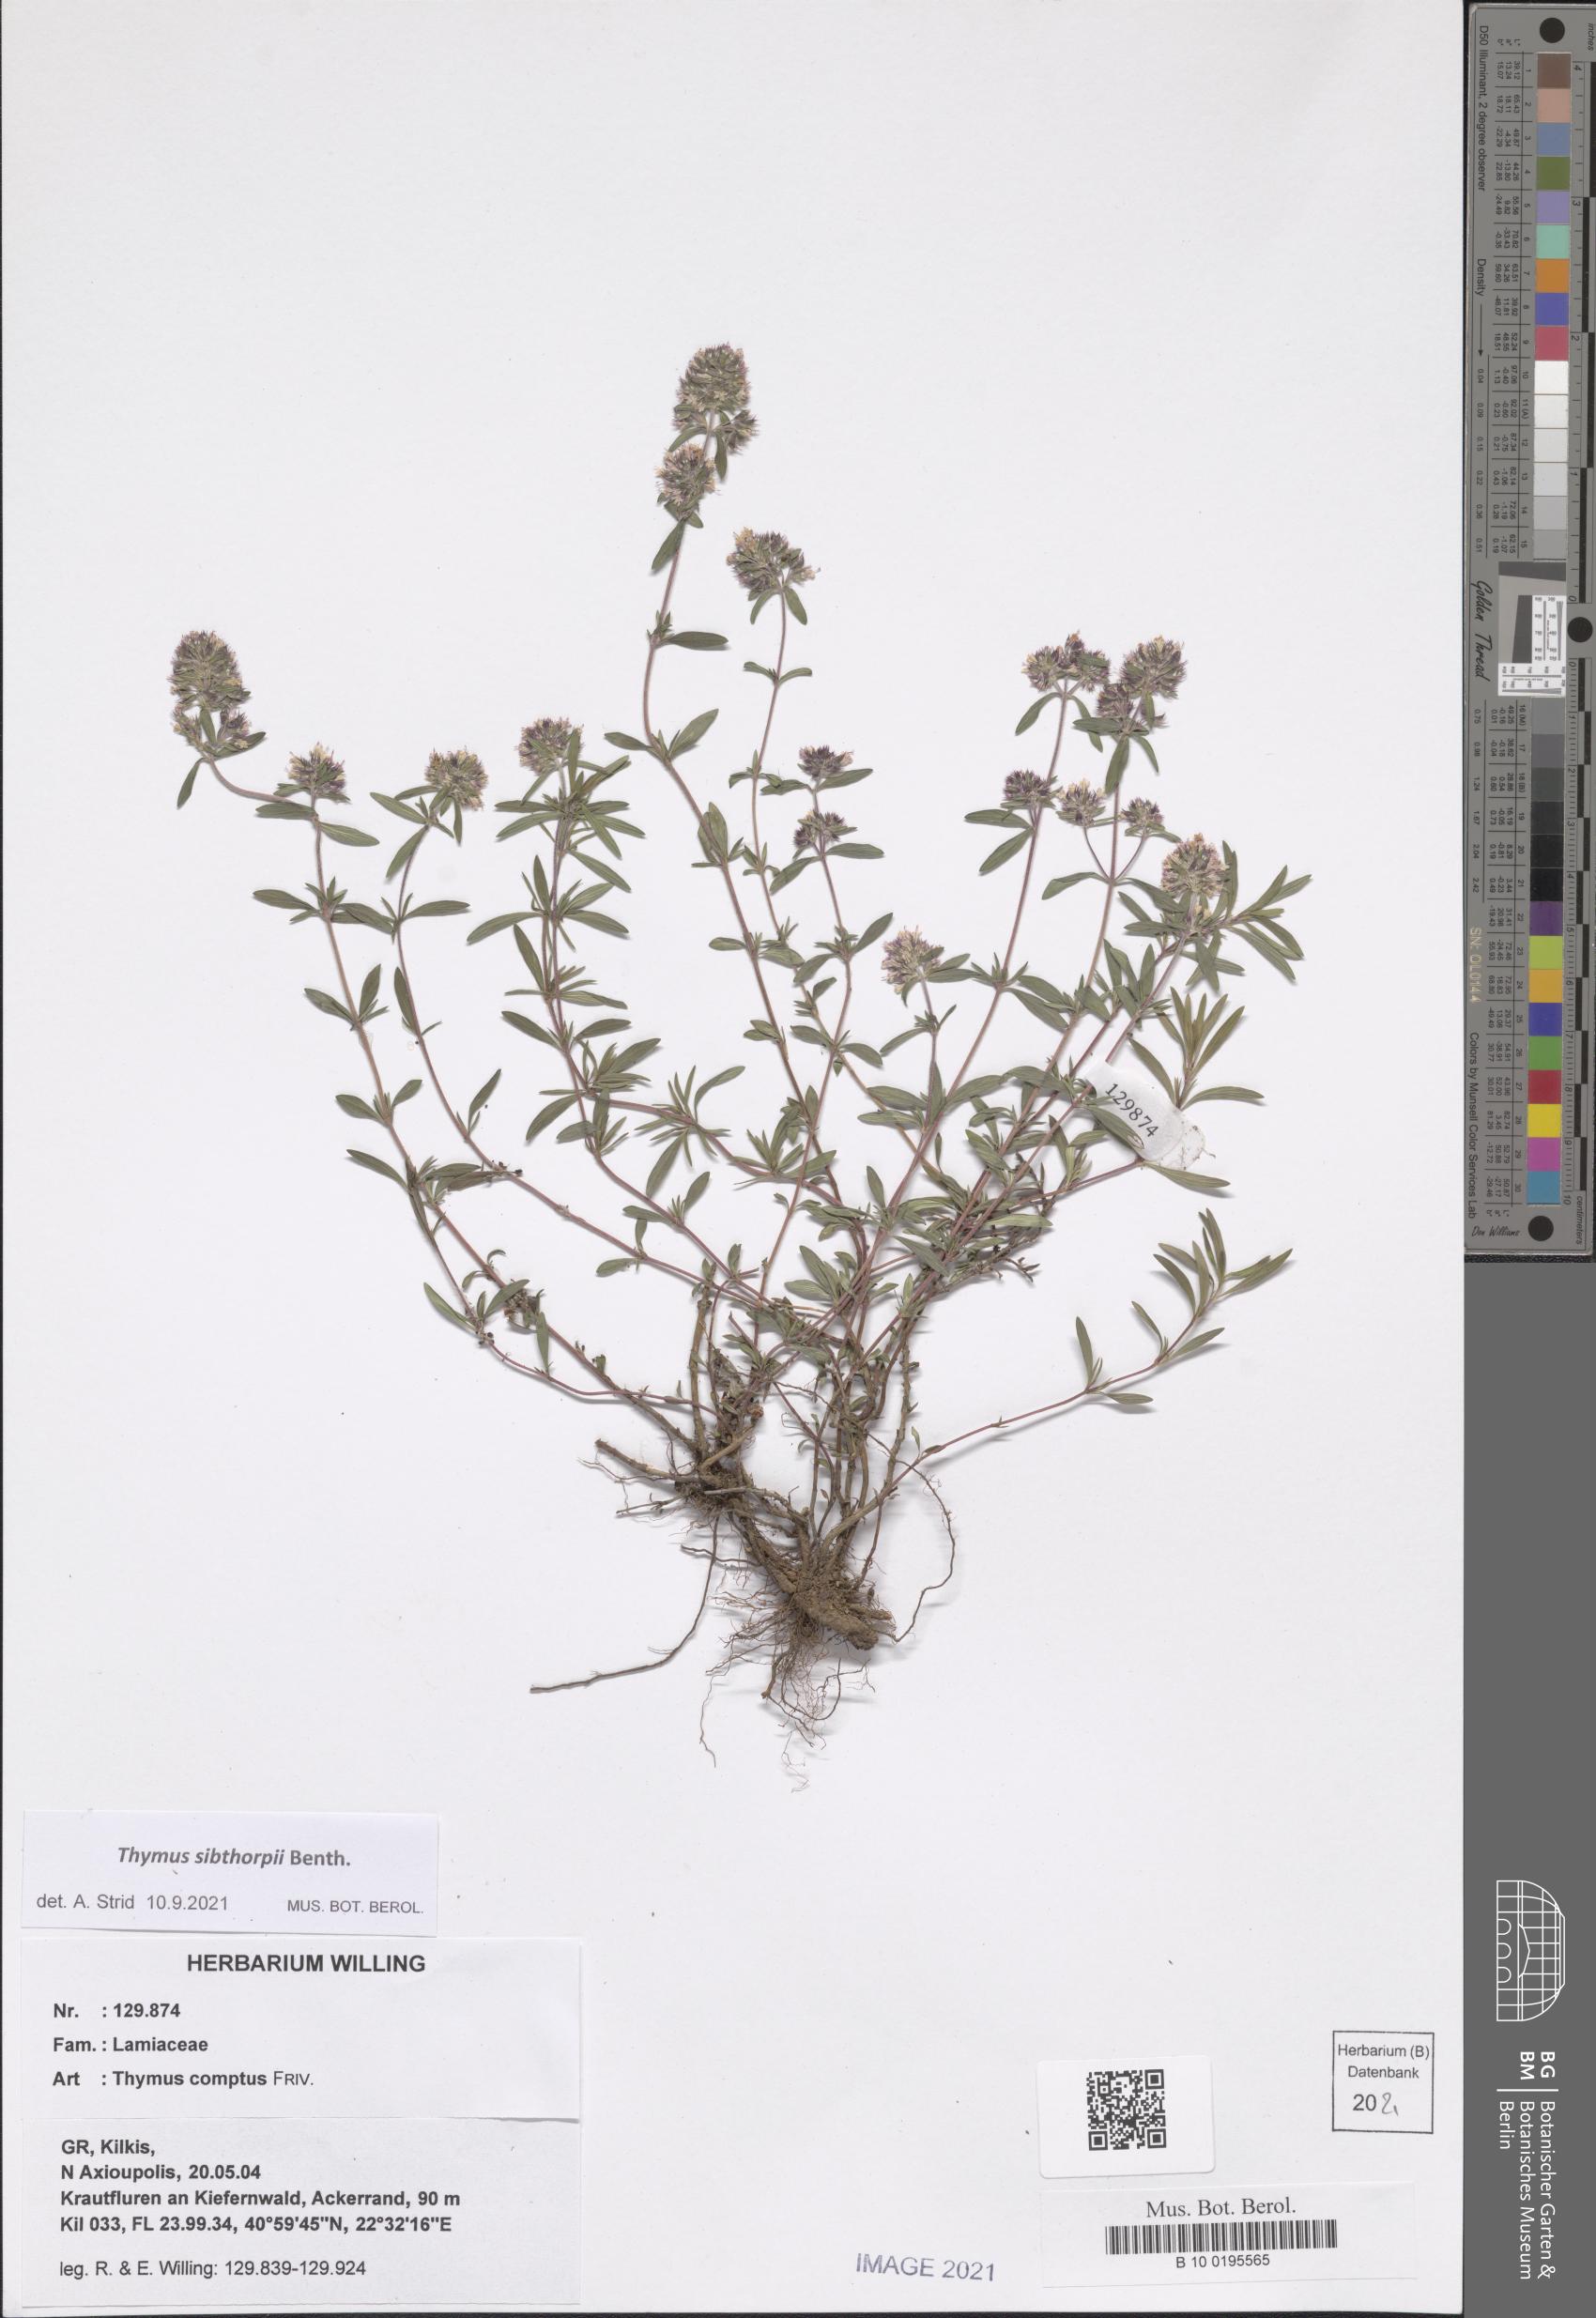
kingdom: Plantae
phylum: Tracheophyta
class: Magnoliopsida
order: Lamiales
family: Lamiaceae
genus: Thymus
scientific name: Thymus sibthorpii
